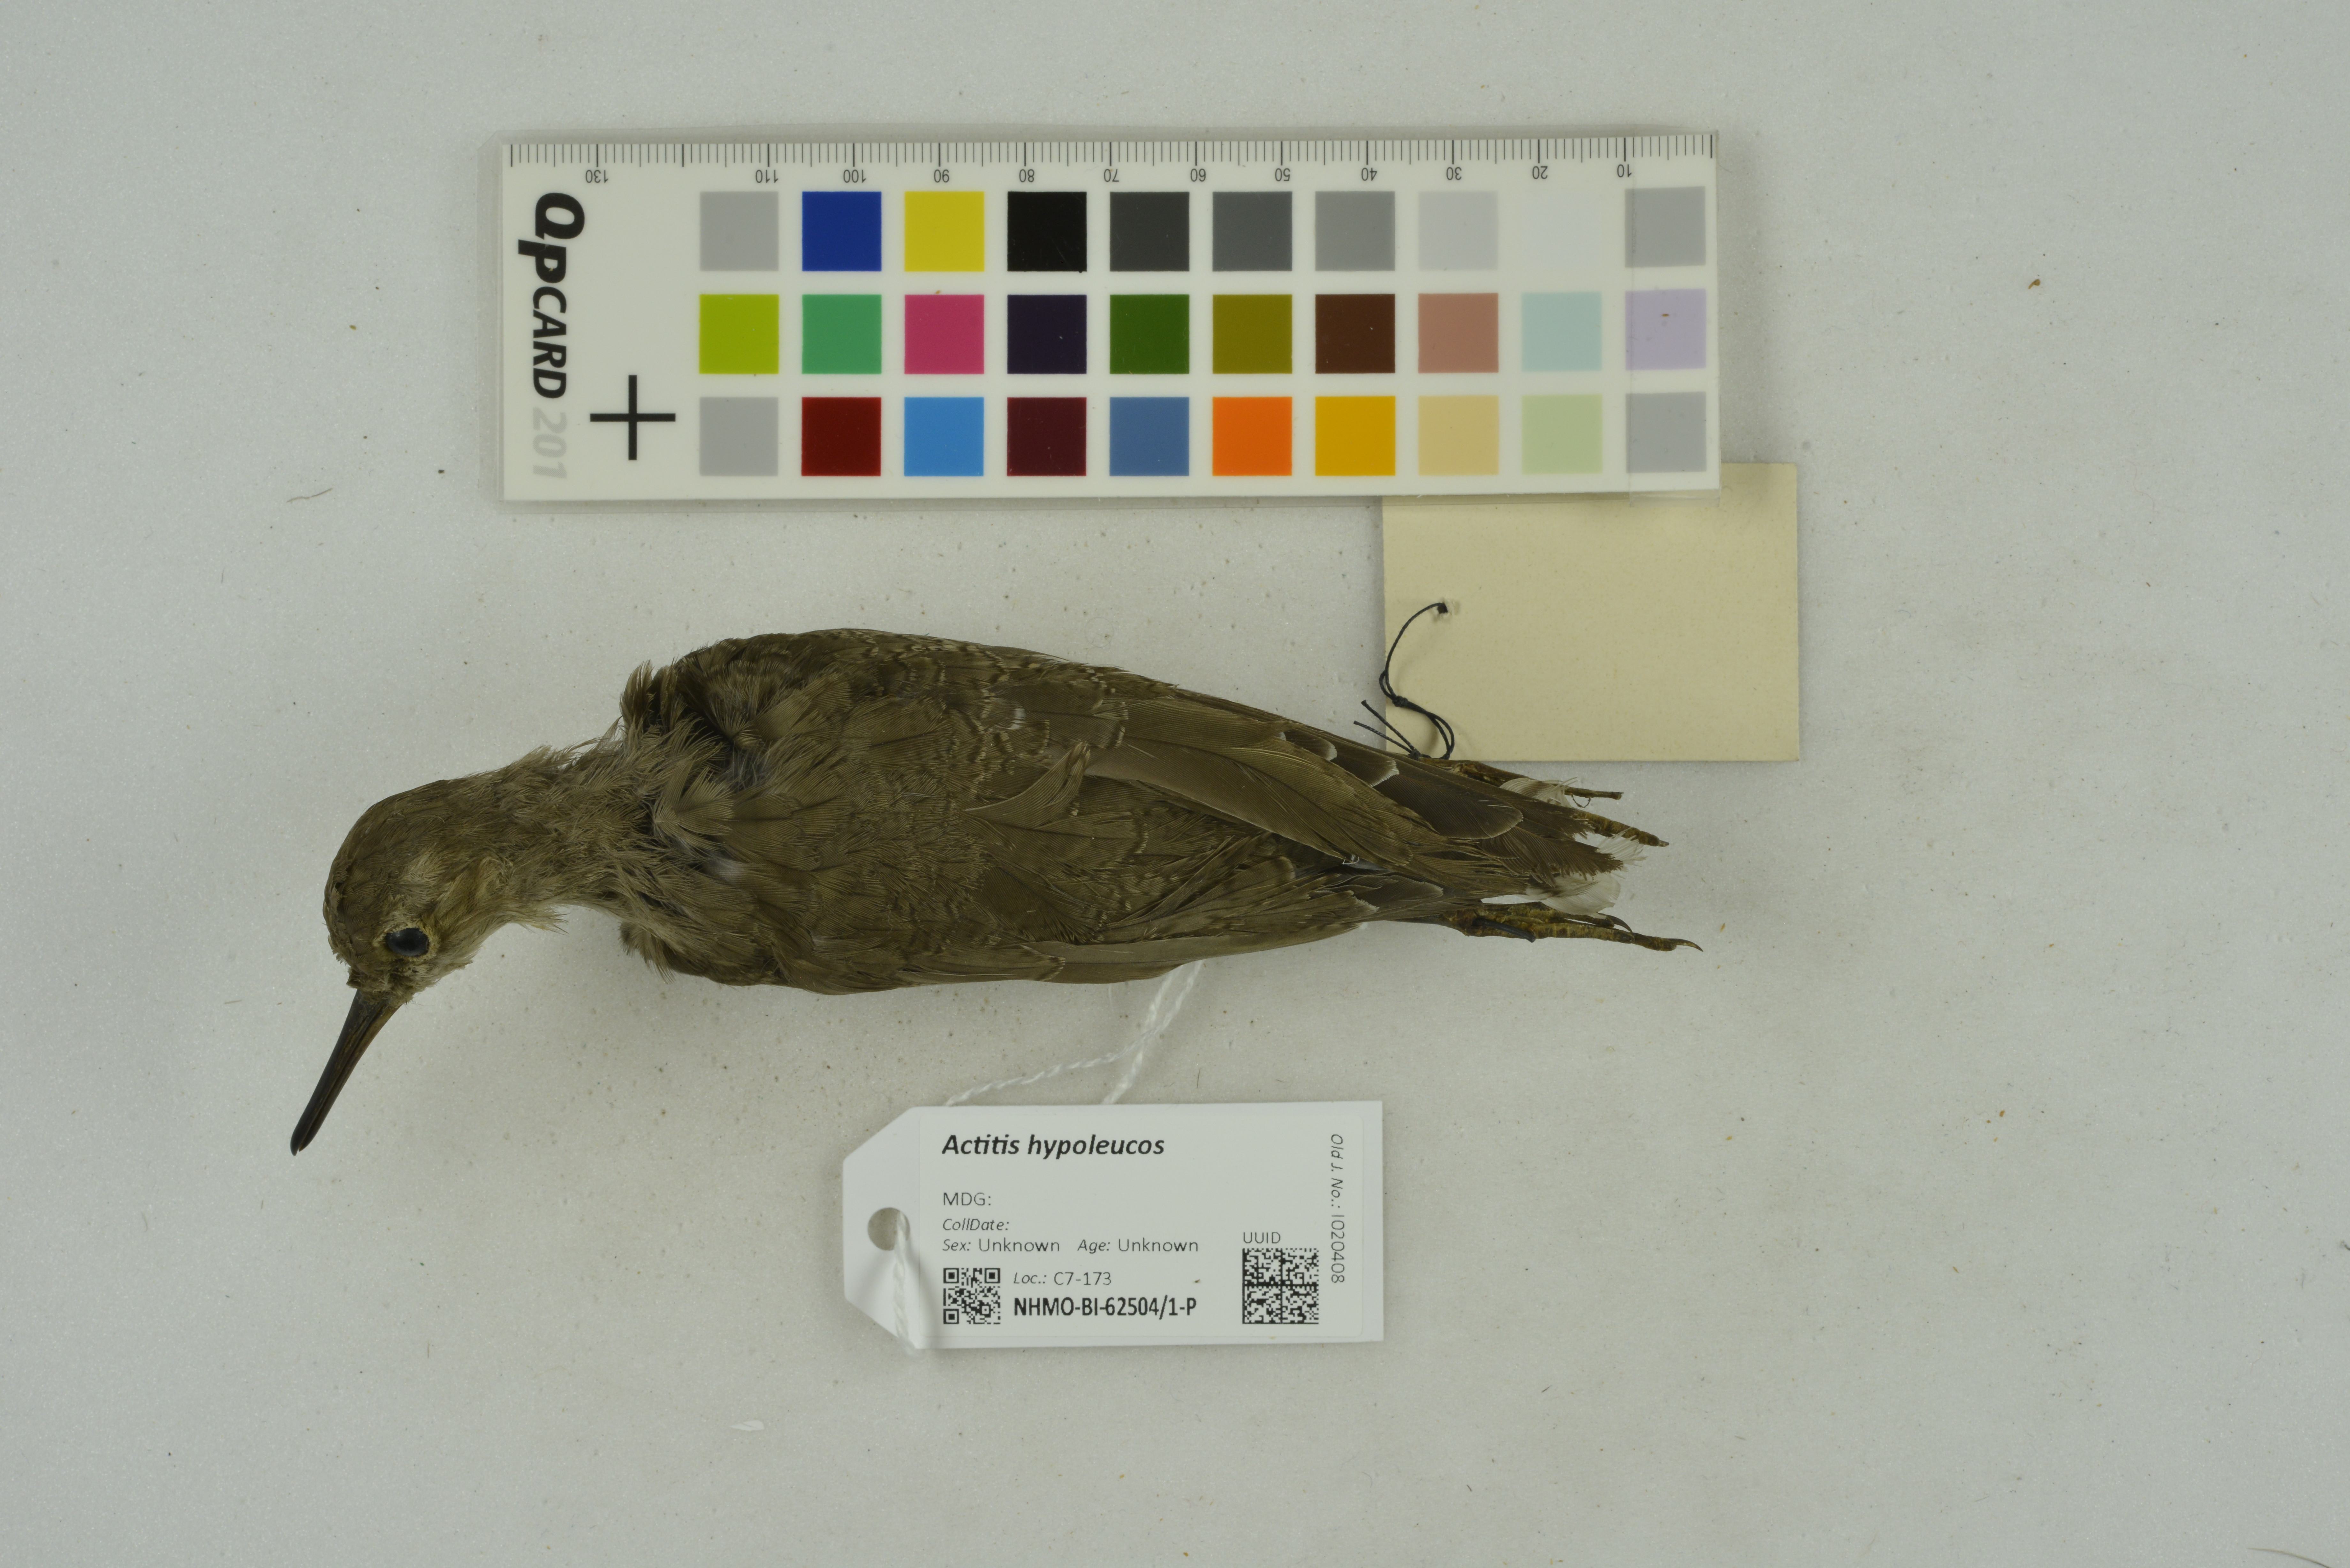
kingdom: Animalia
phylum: Chordata
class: Aves
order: Charadriiformes
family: Scolopacidae
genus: Actitis
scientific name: Actitis hypoleucos
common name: Common sandpiper
